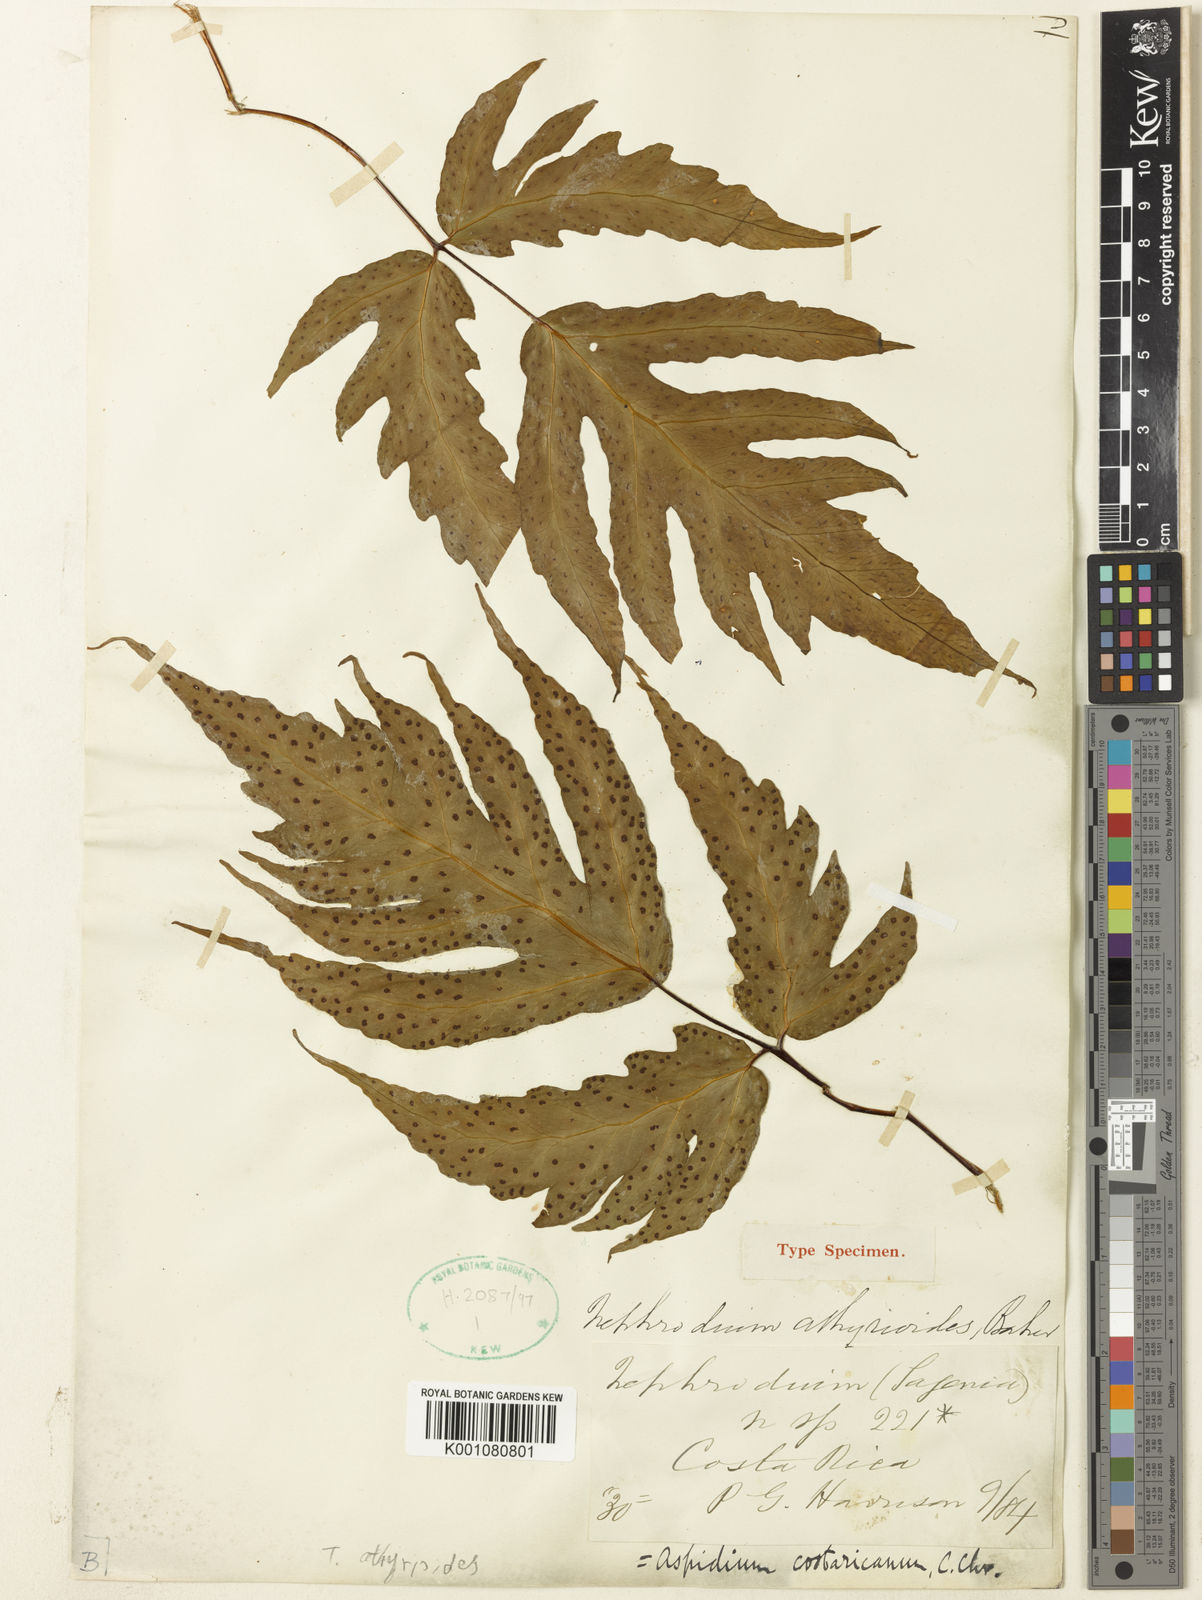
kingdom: Plantae
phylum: Tracheophyta
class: Polypodiopsida
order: Polypodiales
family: Tectariaceae
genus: Tectaria
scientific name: Tectaria antioquiana
